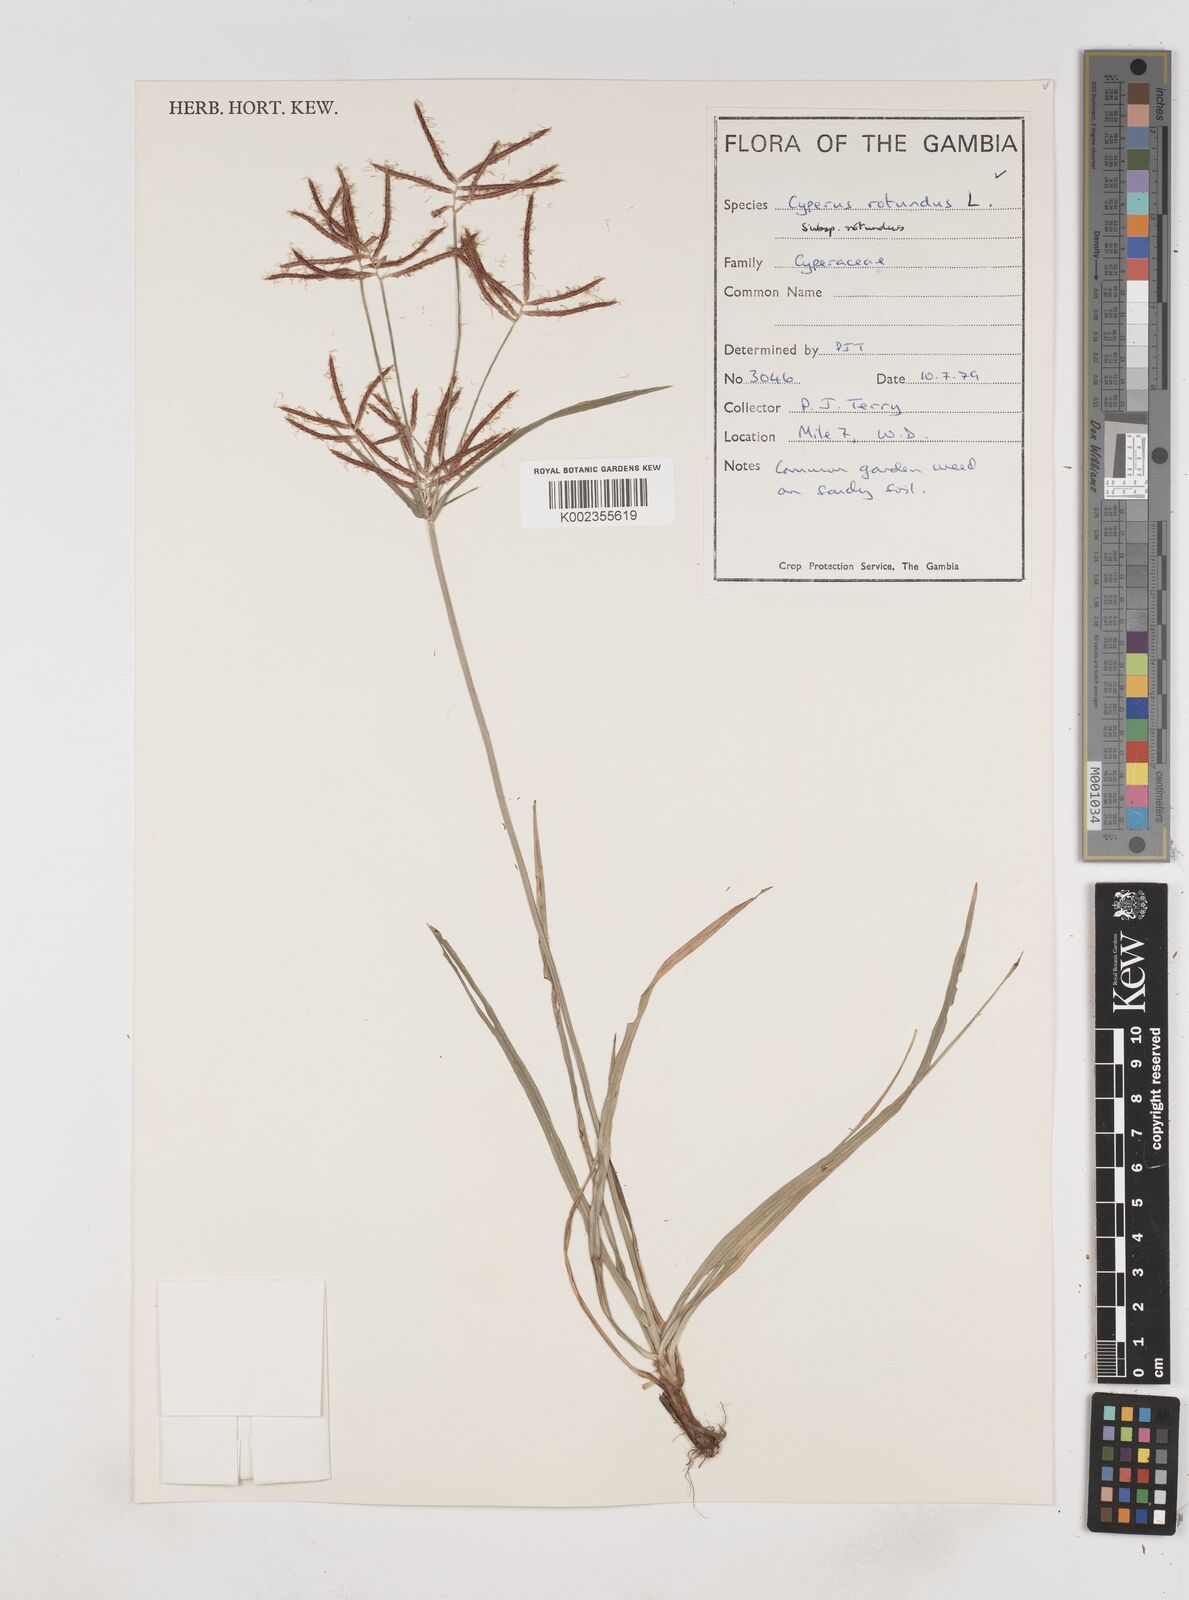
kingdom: Plantae
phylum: Tracheophyta
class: Liliopsida
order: Poales
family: Cyperaceae
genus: Cyperus
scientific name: Cyperus rotundus
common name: Nutgrass
